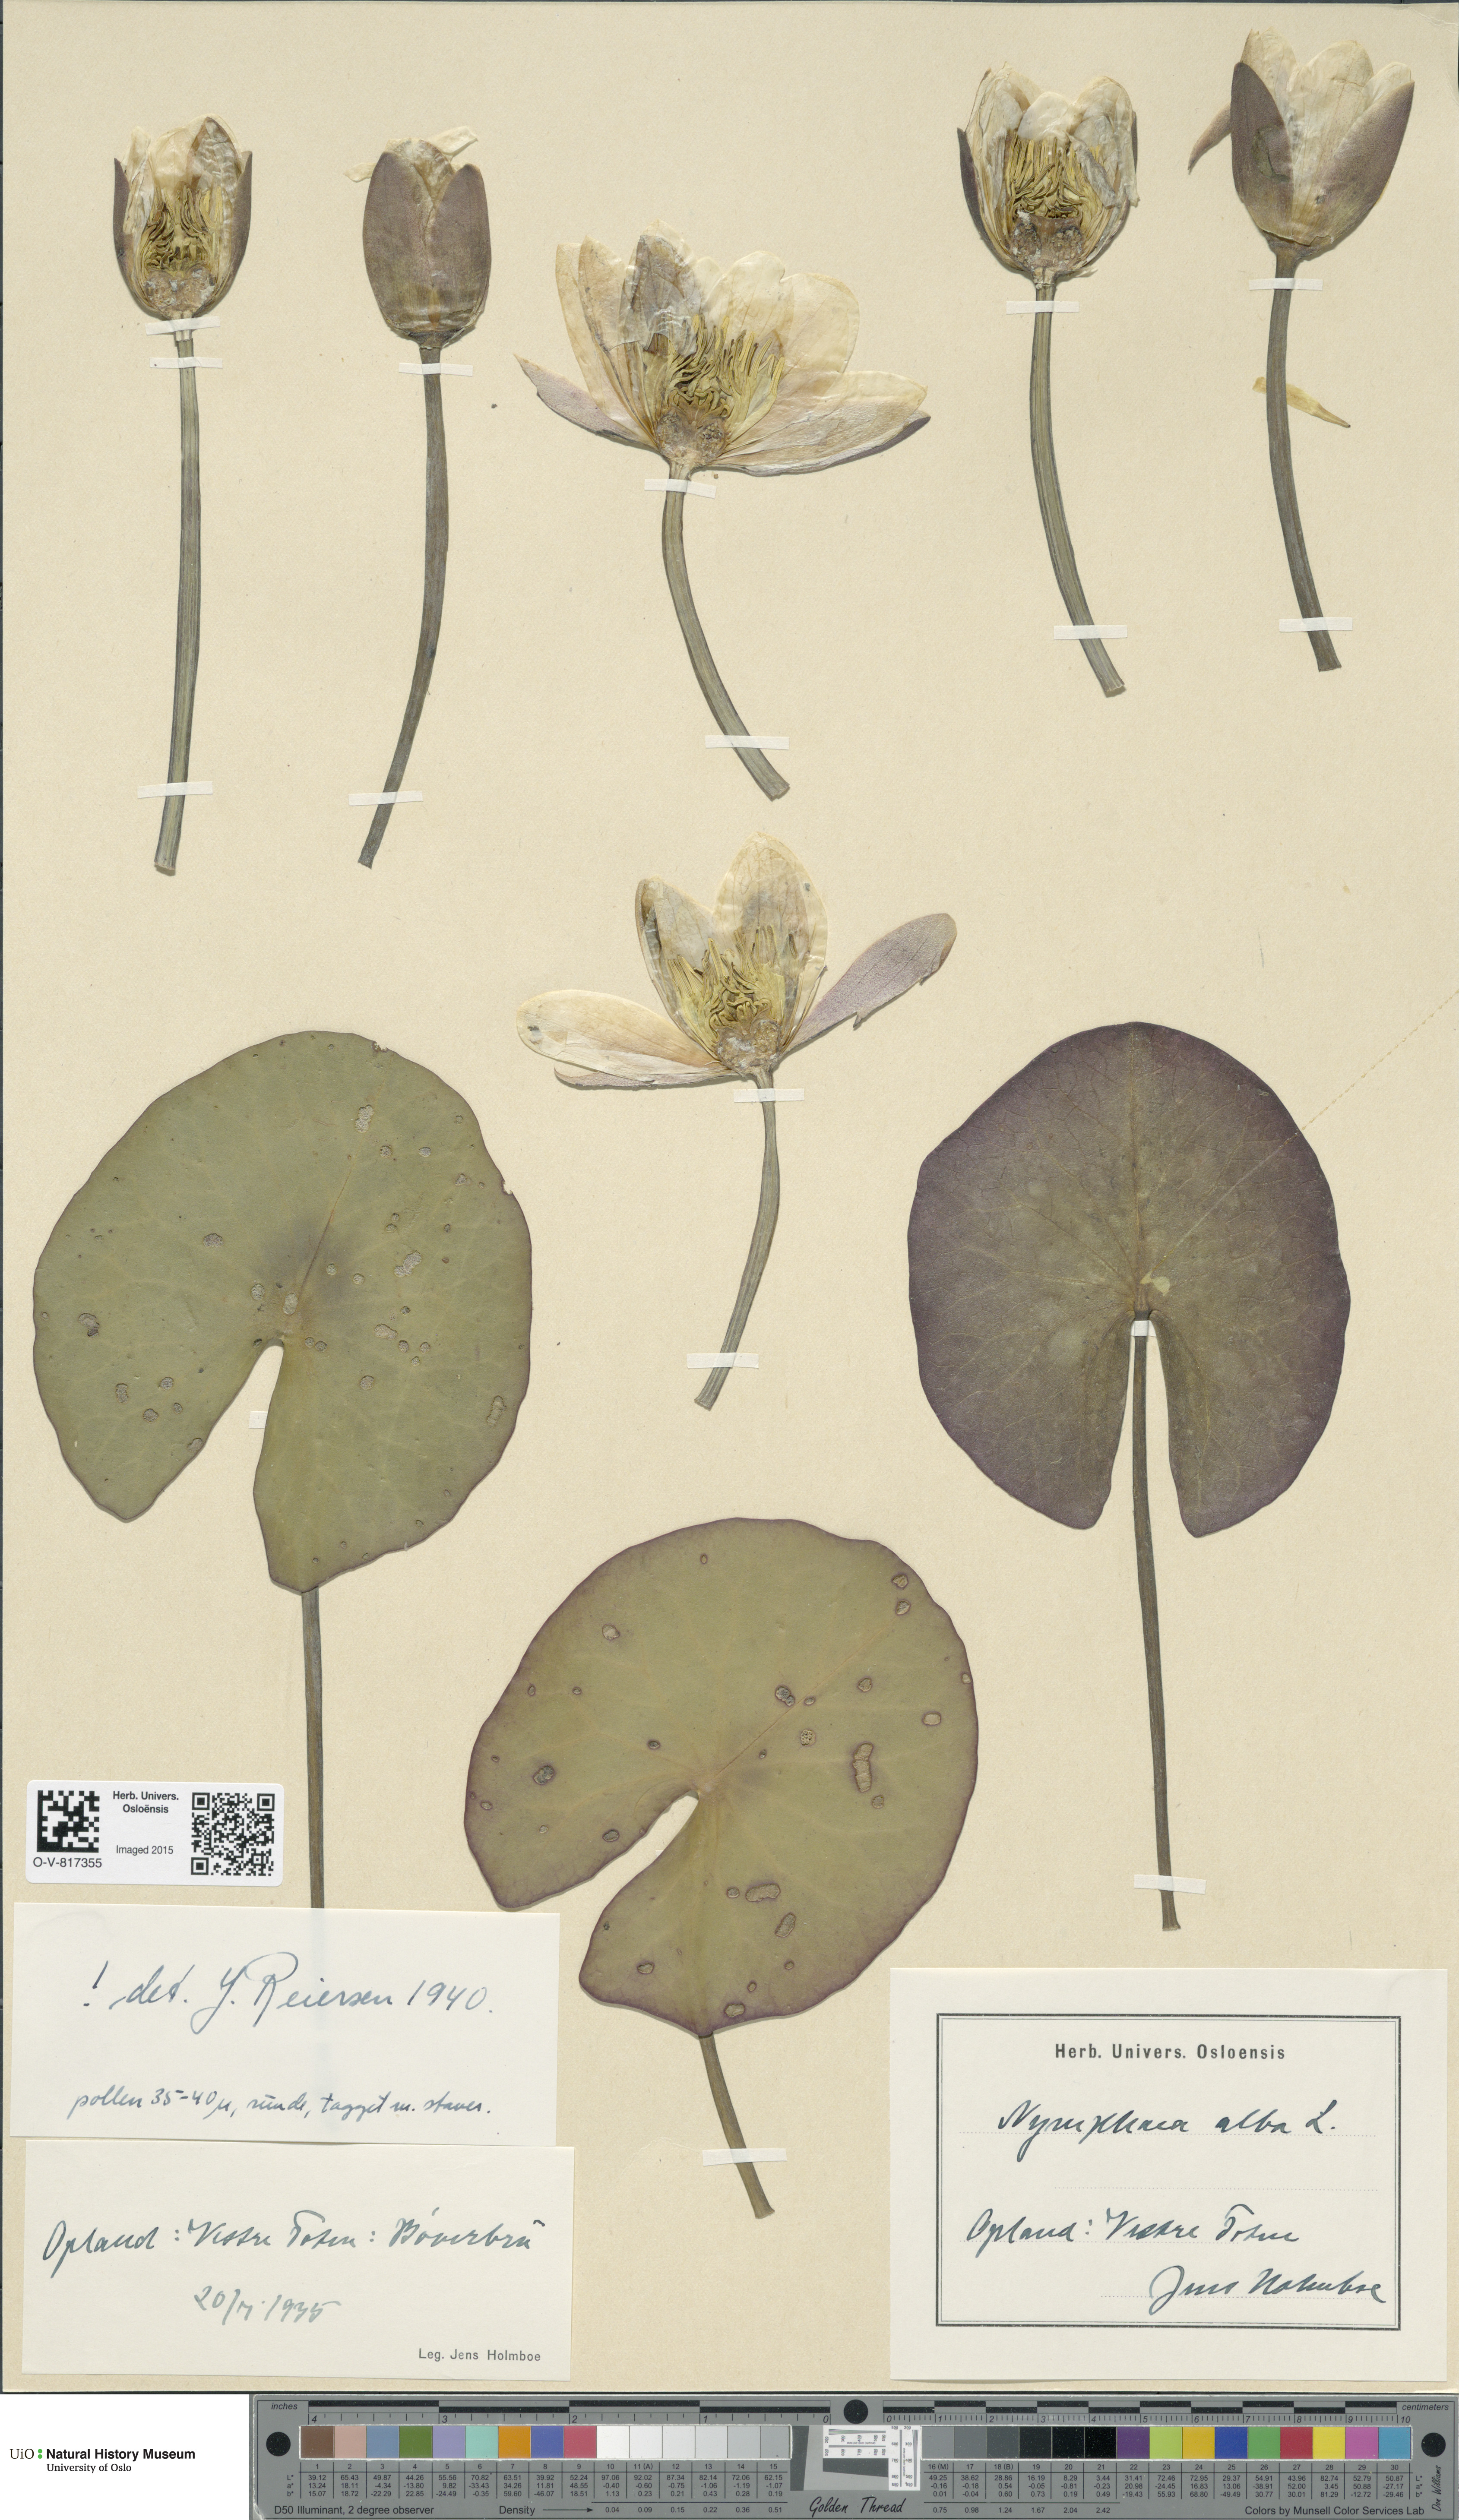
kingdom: Plantae
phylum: Tracheophyta
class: Magnoliopsida
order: Nymphaeales
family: Nymphaeaceae
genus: Nymphaea
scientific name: Nymphaea alba
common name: White water-lily
